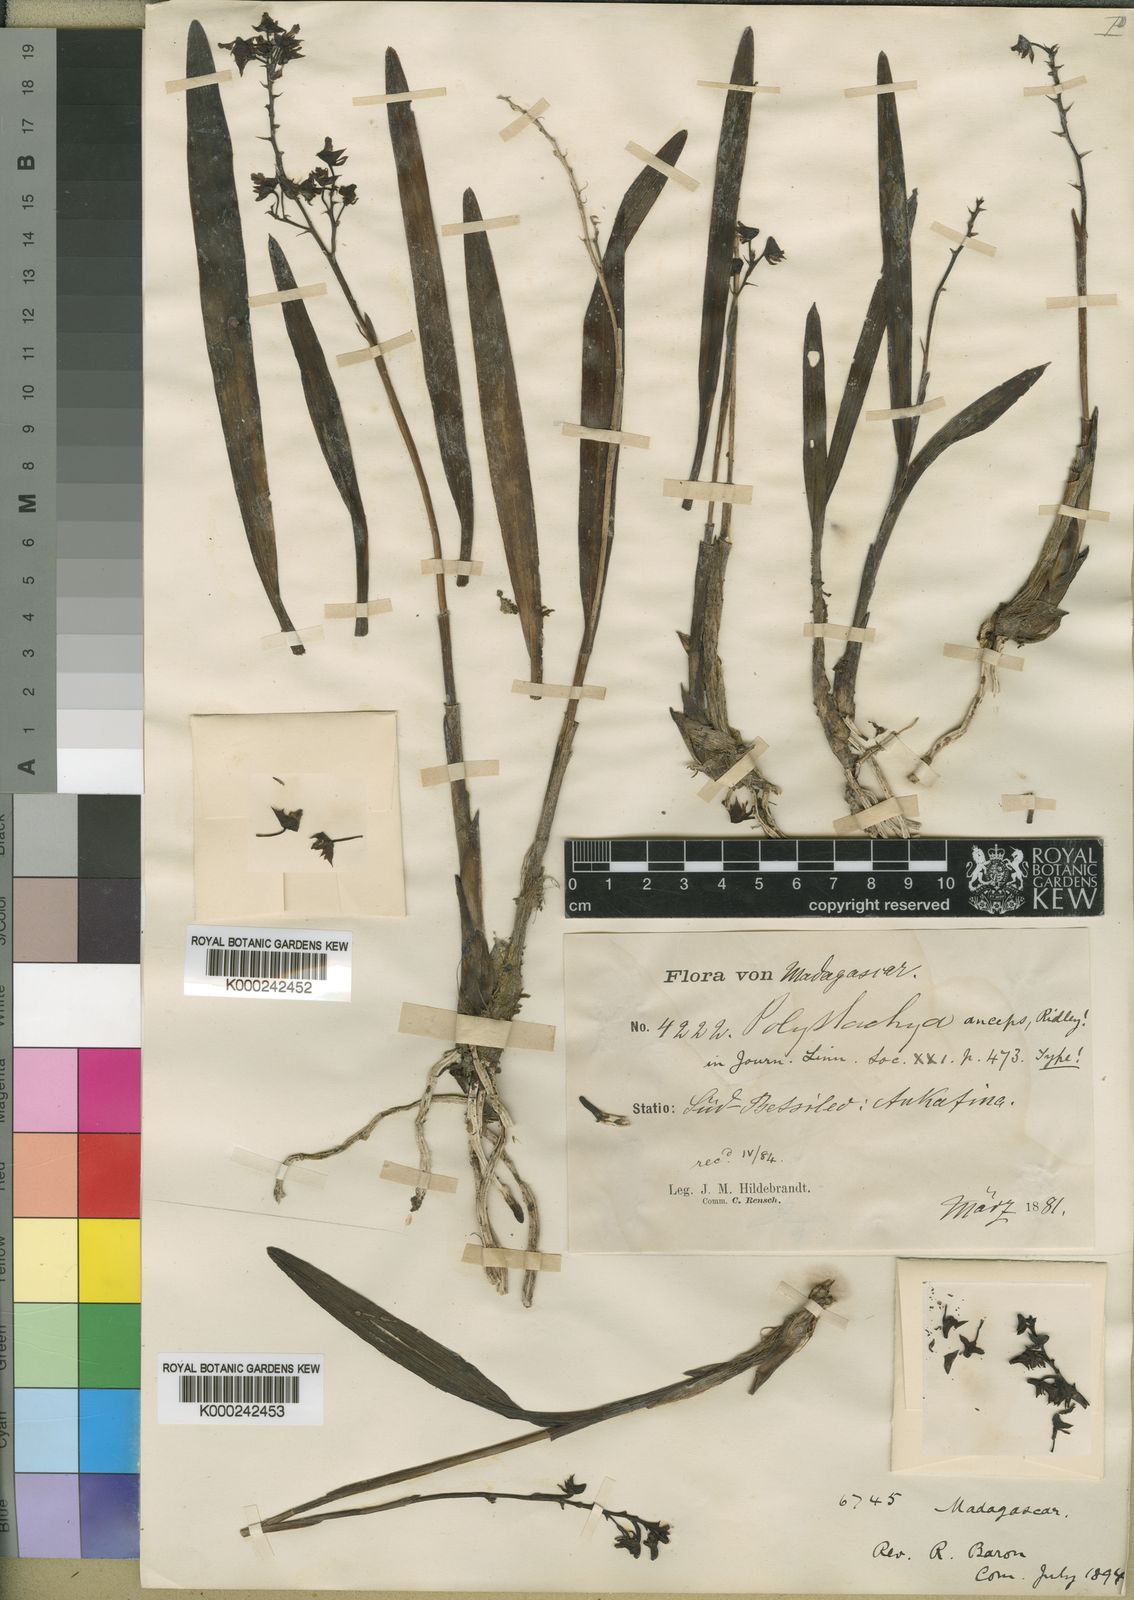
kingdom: Plantae
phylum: Tracheophyta
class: Liliopsida
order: Asparagales
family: Orchidaceae
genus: Polystachya
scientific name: Polystachya anceps
